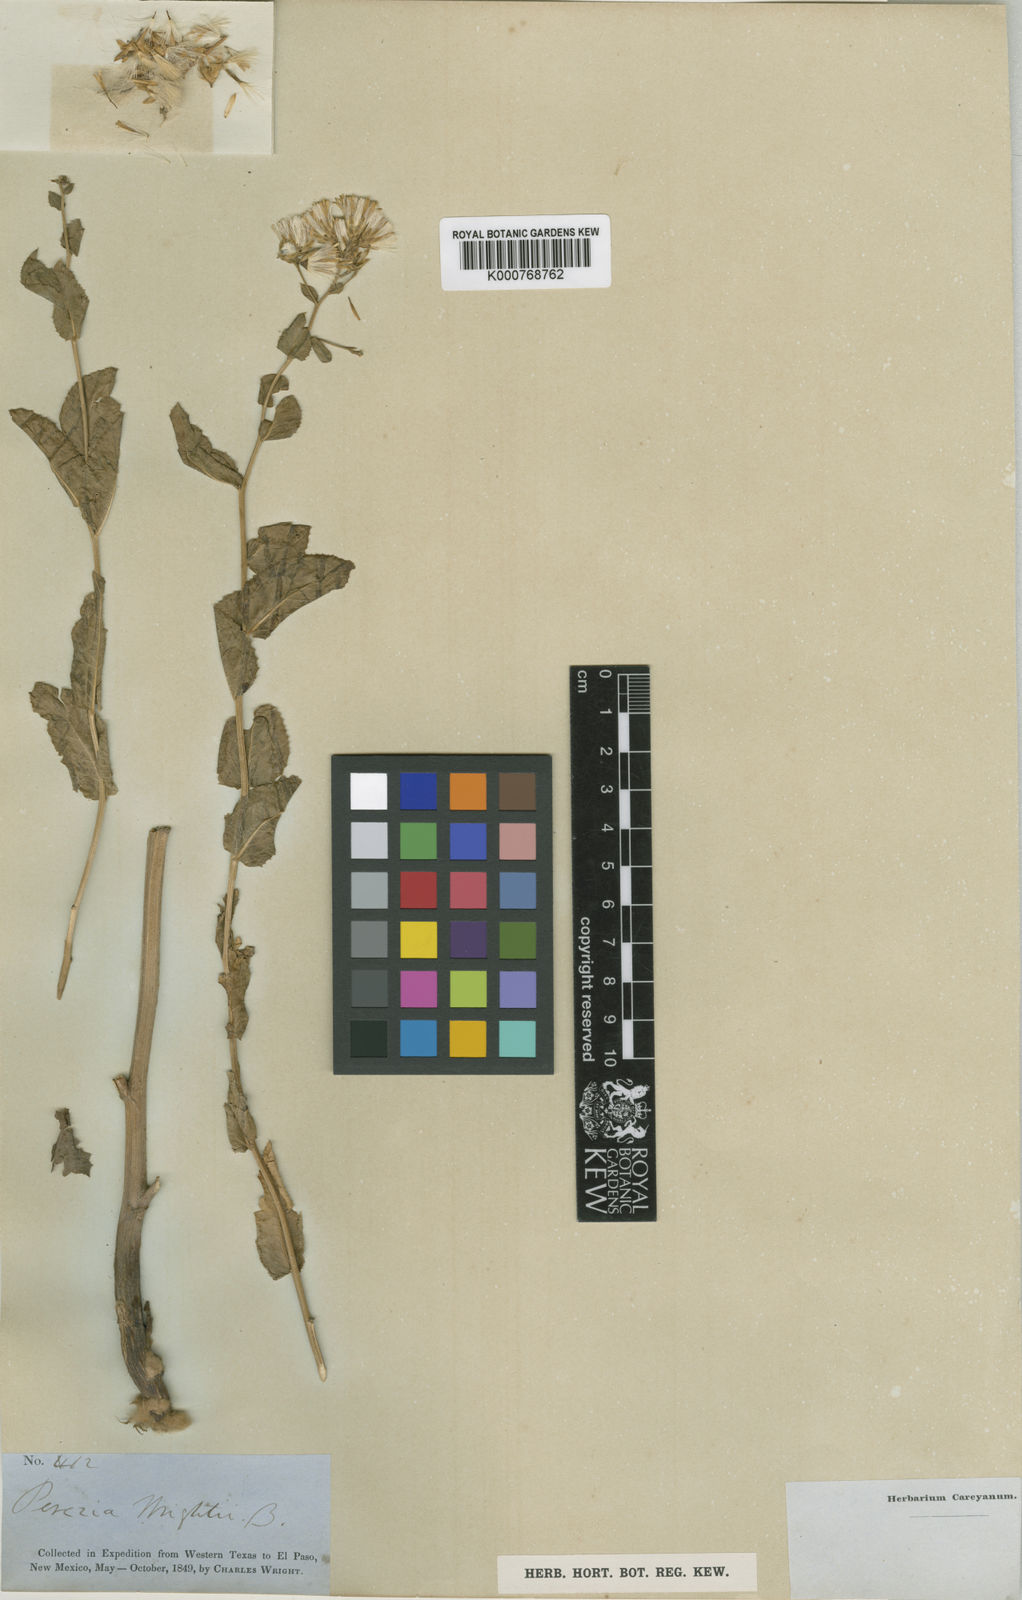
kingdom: Plantae
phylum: Tracheophyta
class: Magnoliopsida
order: Asterales
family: Asteraceae
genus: Acourtia
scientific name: Acourtia wrightii
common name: Brownfoot
